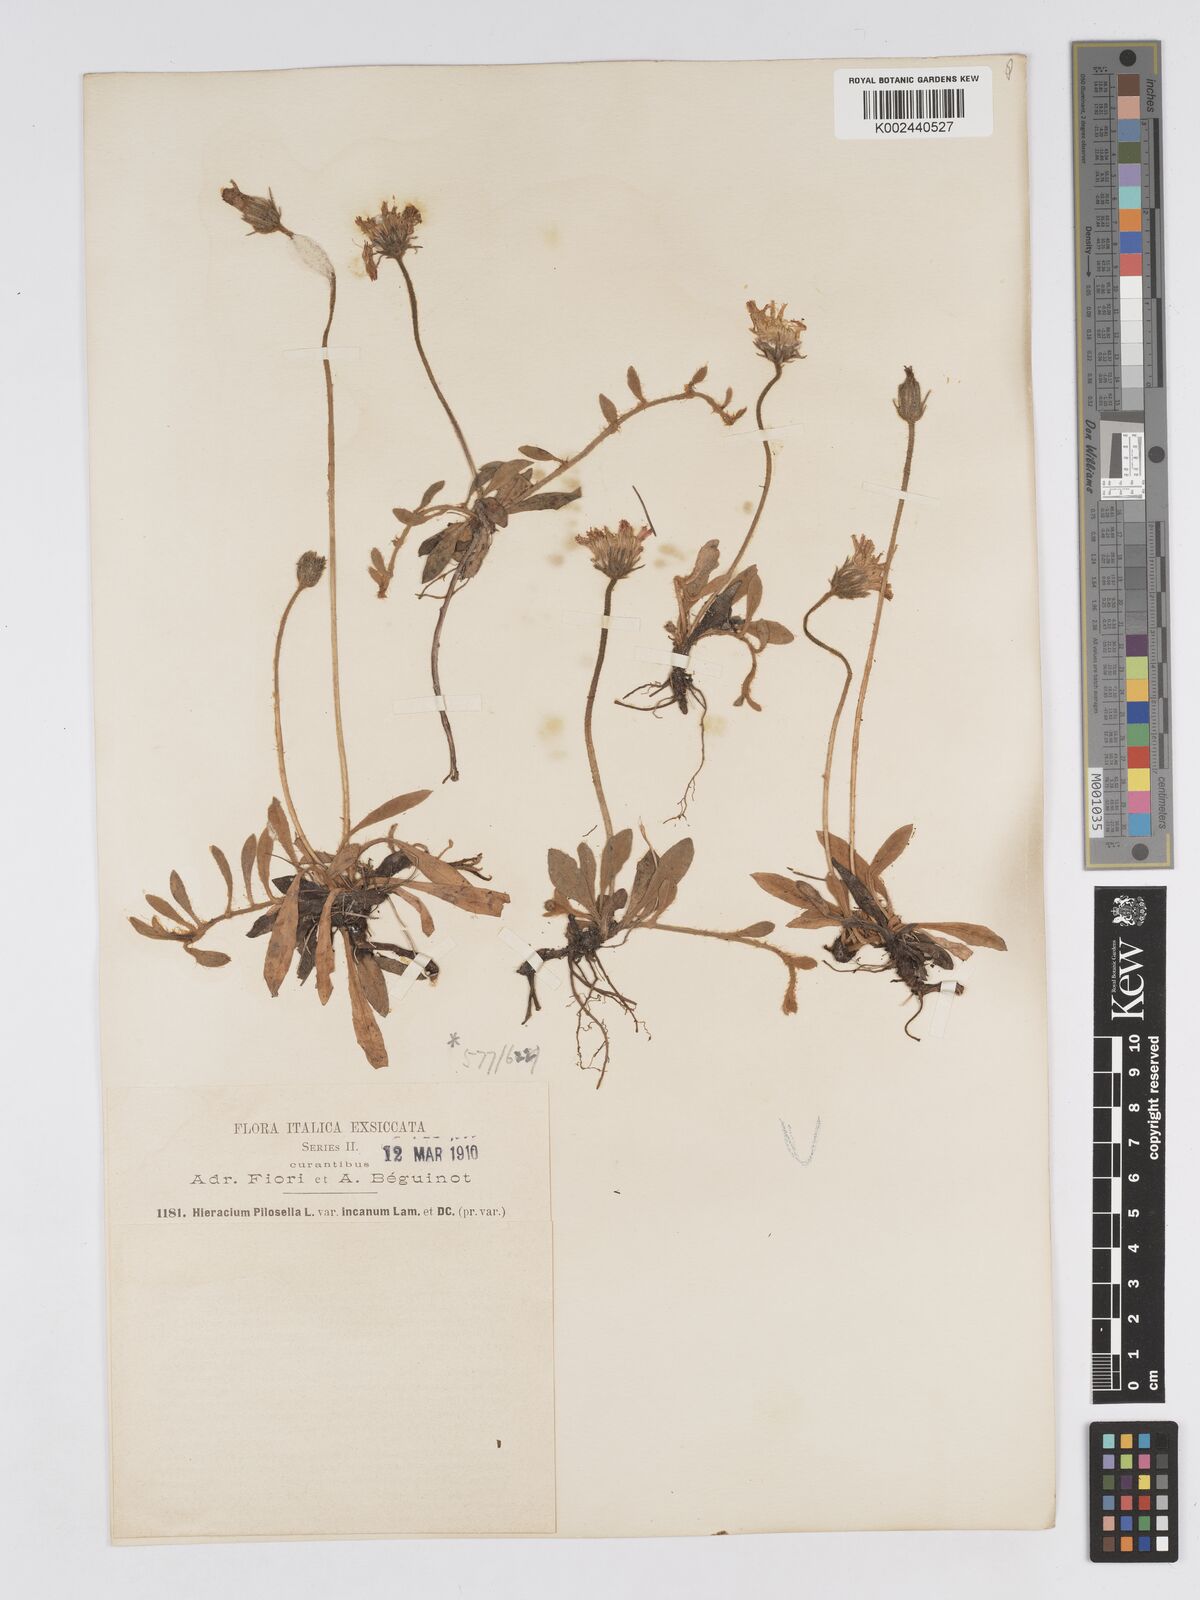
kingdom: Plantae
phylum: Tracheophyta
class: Magnoliopsida
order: Asterales
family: Asteraceae
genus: Pilosella
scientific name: Pilosella velutina
